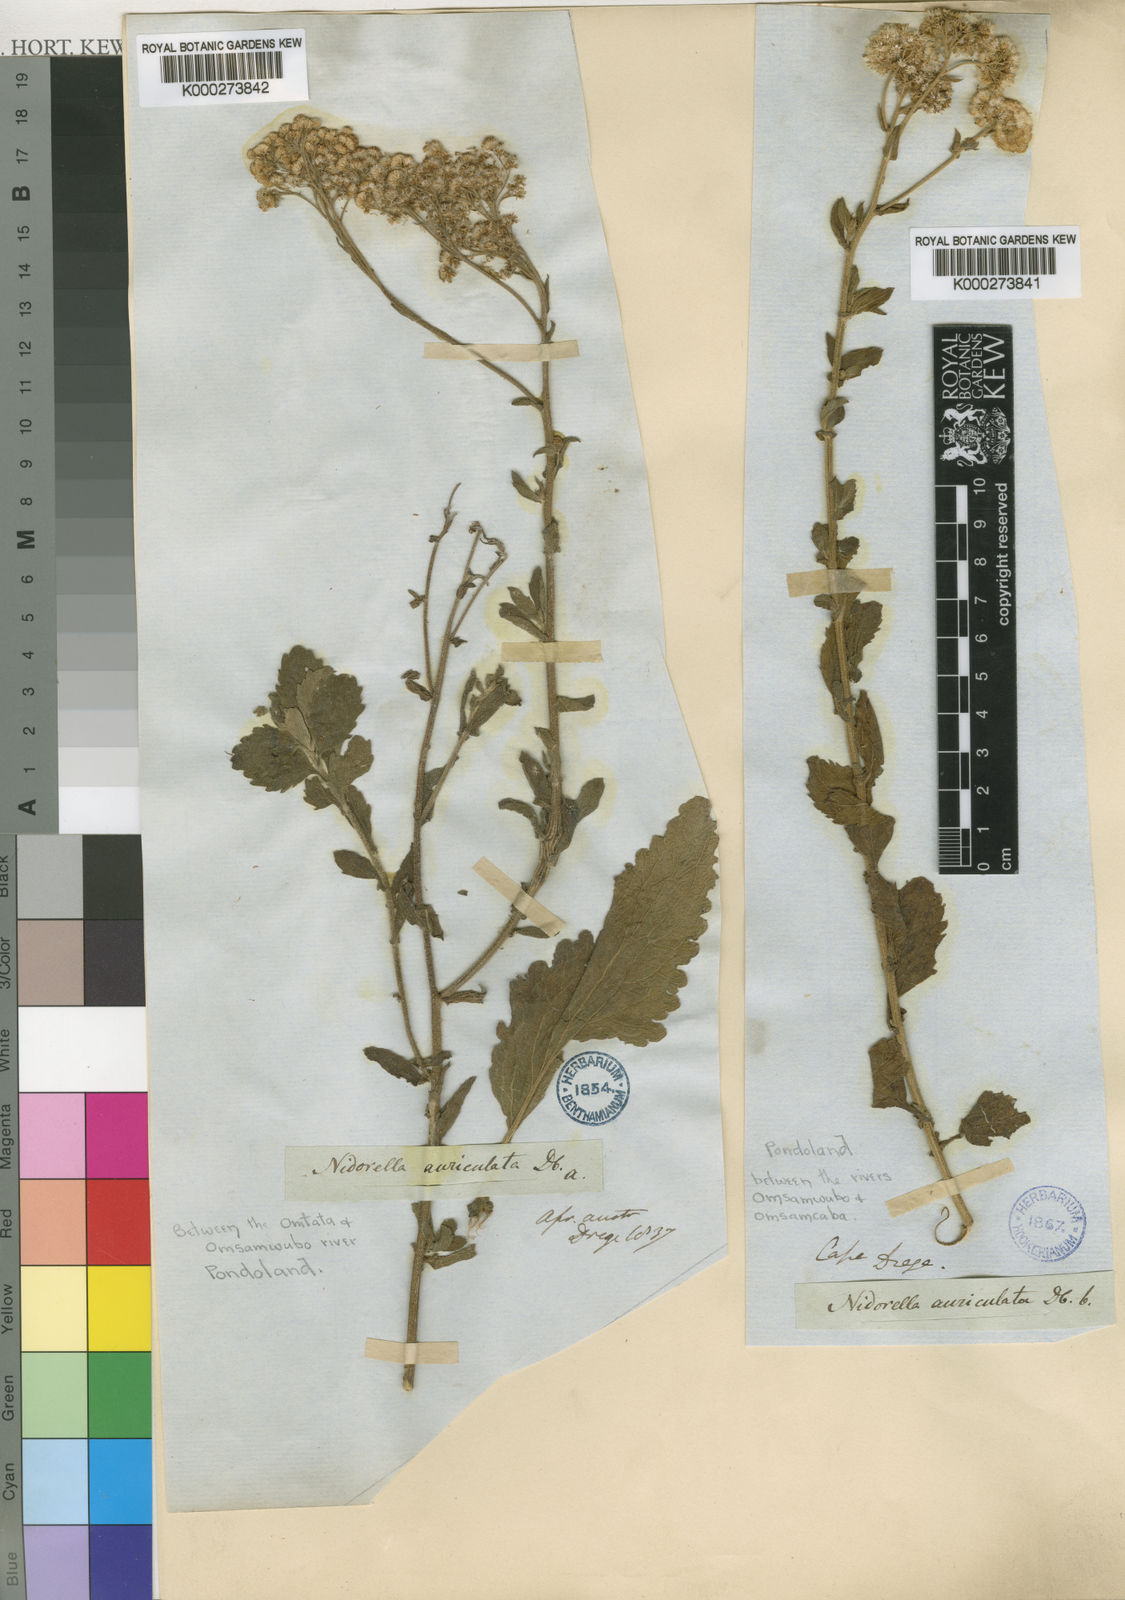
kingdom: Plantae
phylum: Tracheophyta
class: Magnoliopsida
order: Asterales
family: Asteraceae
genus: Nidorella
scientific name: Nidorella auriculata
